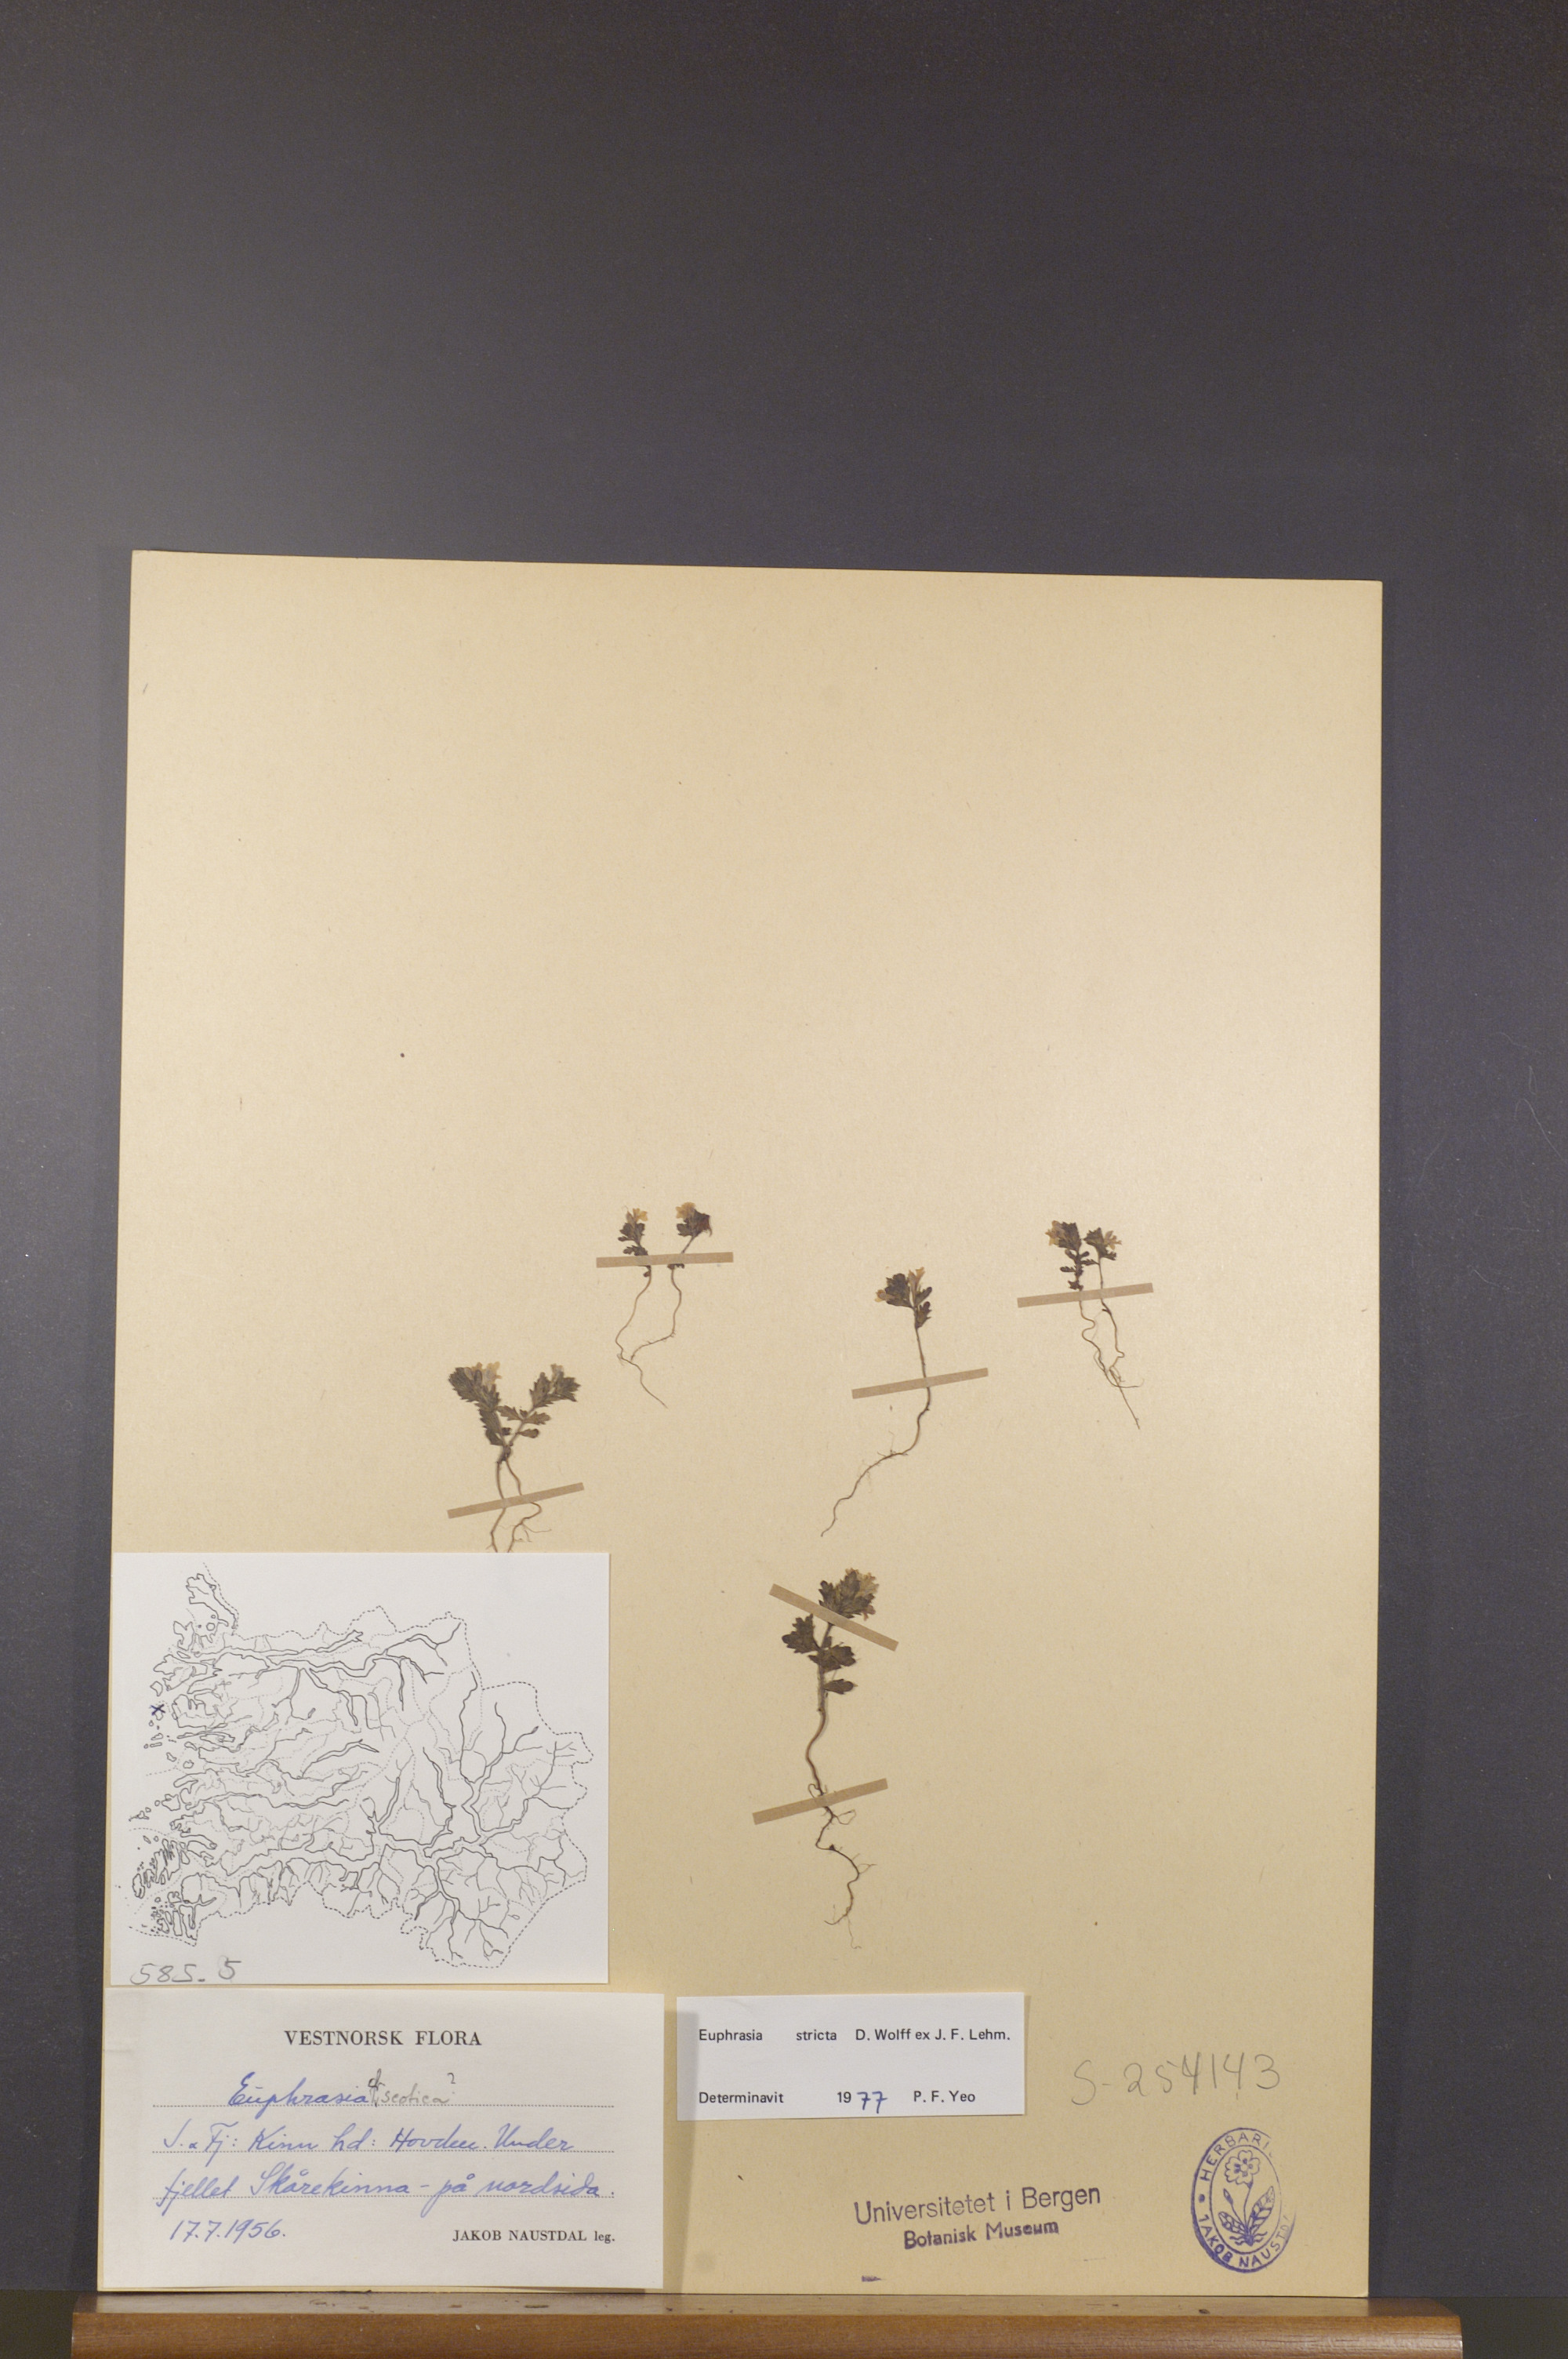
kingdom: Plantae
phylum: Tracheophyta
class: Magnoliopsida
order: Lamiales
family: Orobanchaceae
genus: Euphrasia
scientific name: Euphrasia stricta
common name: Drug eyebright
